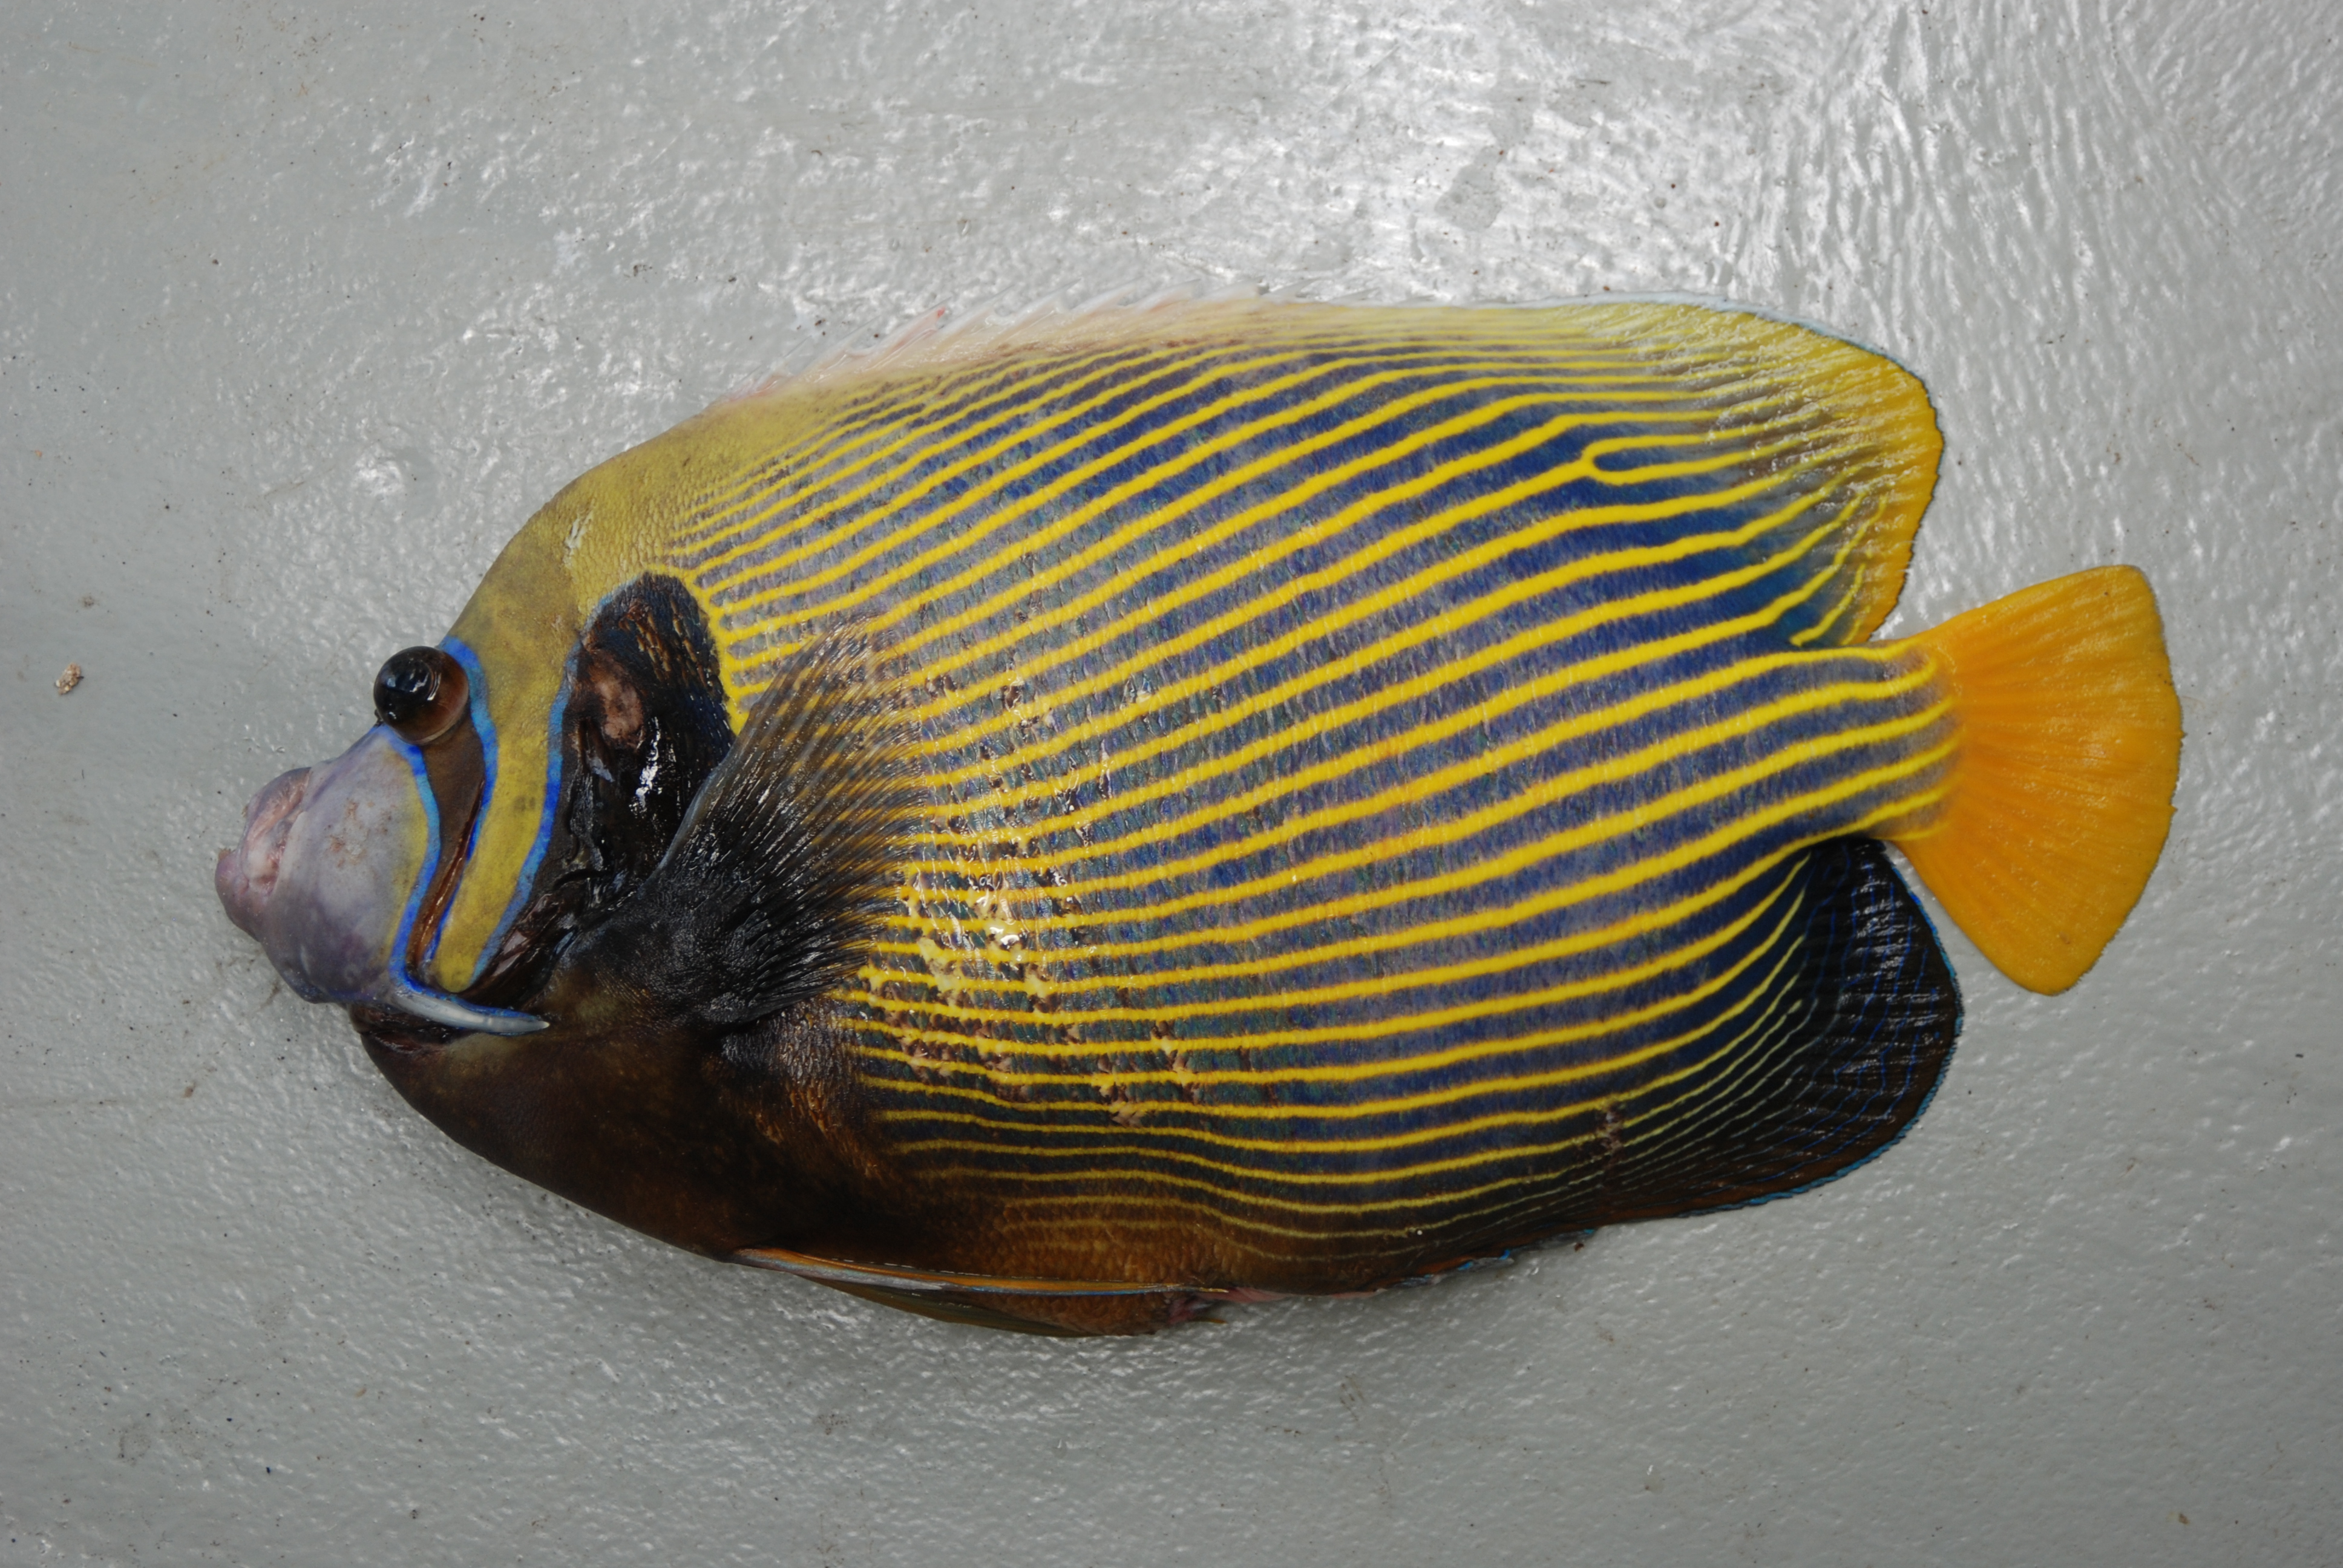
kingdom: Animalia
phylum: Chordata
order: Perciformes
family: Pomacanthidae
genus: Pomacanthus
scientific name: Pomacanthus imperator
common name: Emperor angelfish
